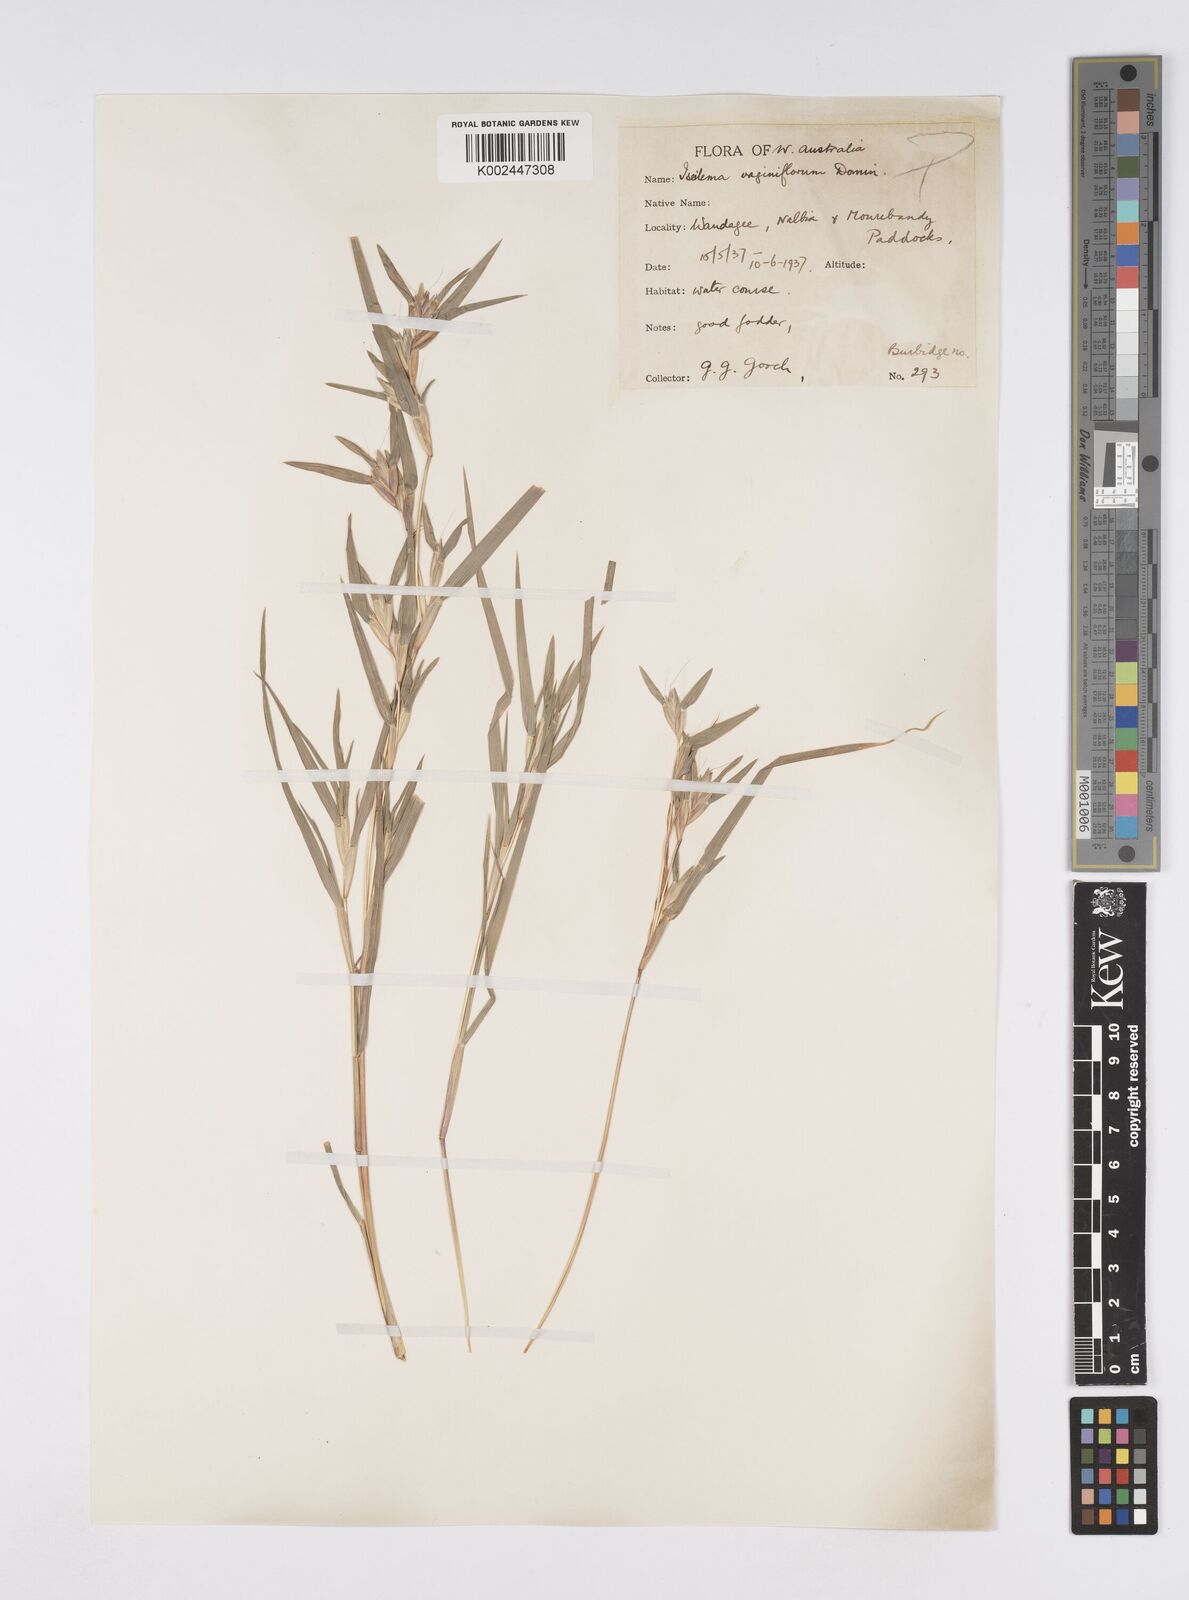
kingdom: Plantae
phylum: Tracheophyta
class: Liliopsida
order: Poales
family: Poaceae
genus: Iseilema
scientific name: Iseilema vaginiflorum
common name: Red flinders grass
